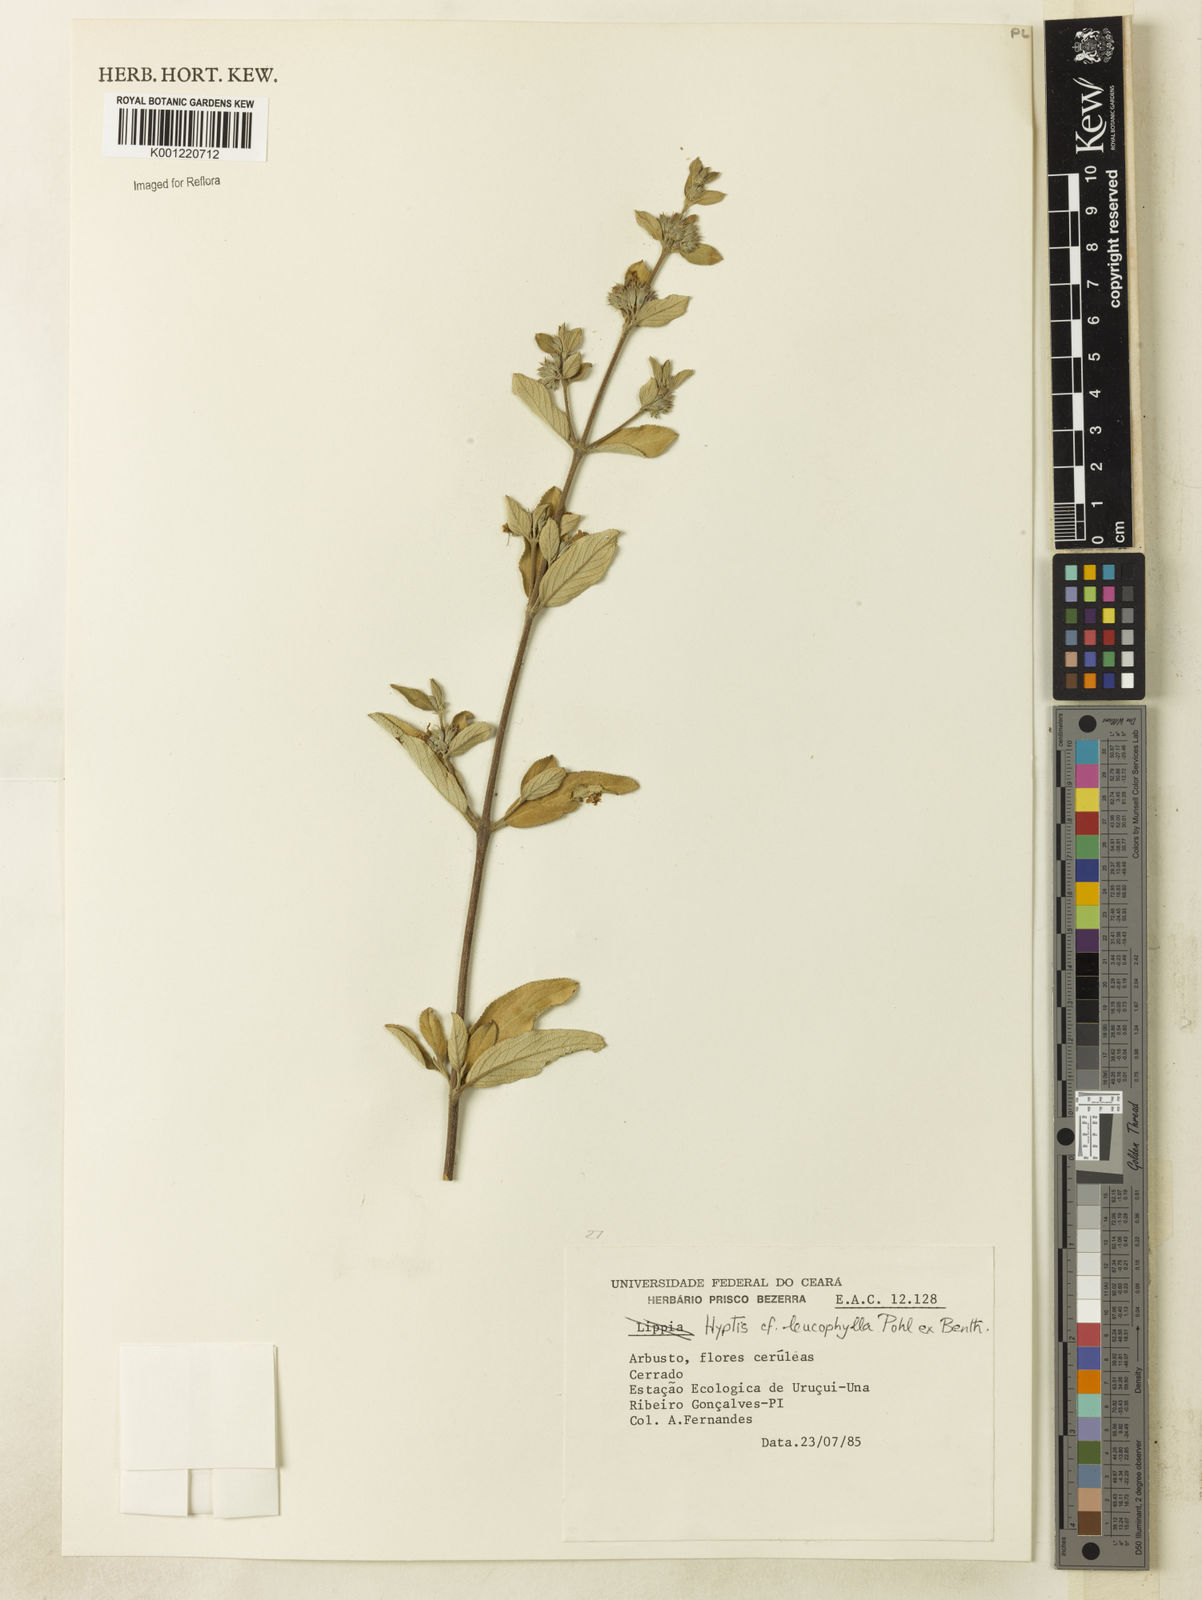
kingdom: Plantae
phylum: Tracheophyta
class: Magnoliopsida
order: Lamiales
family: Lamiaceae
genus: Hyptidendron
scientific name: Hyptidendron leucophyllum
